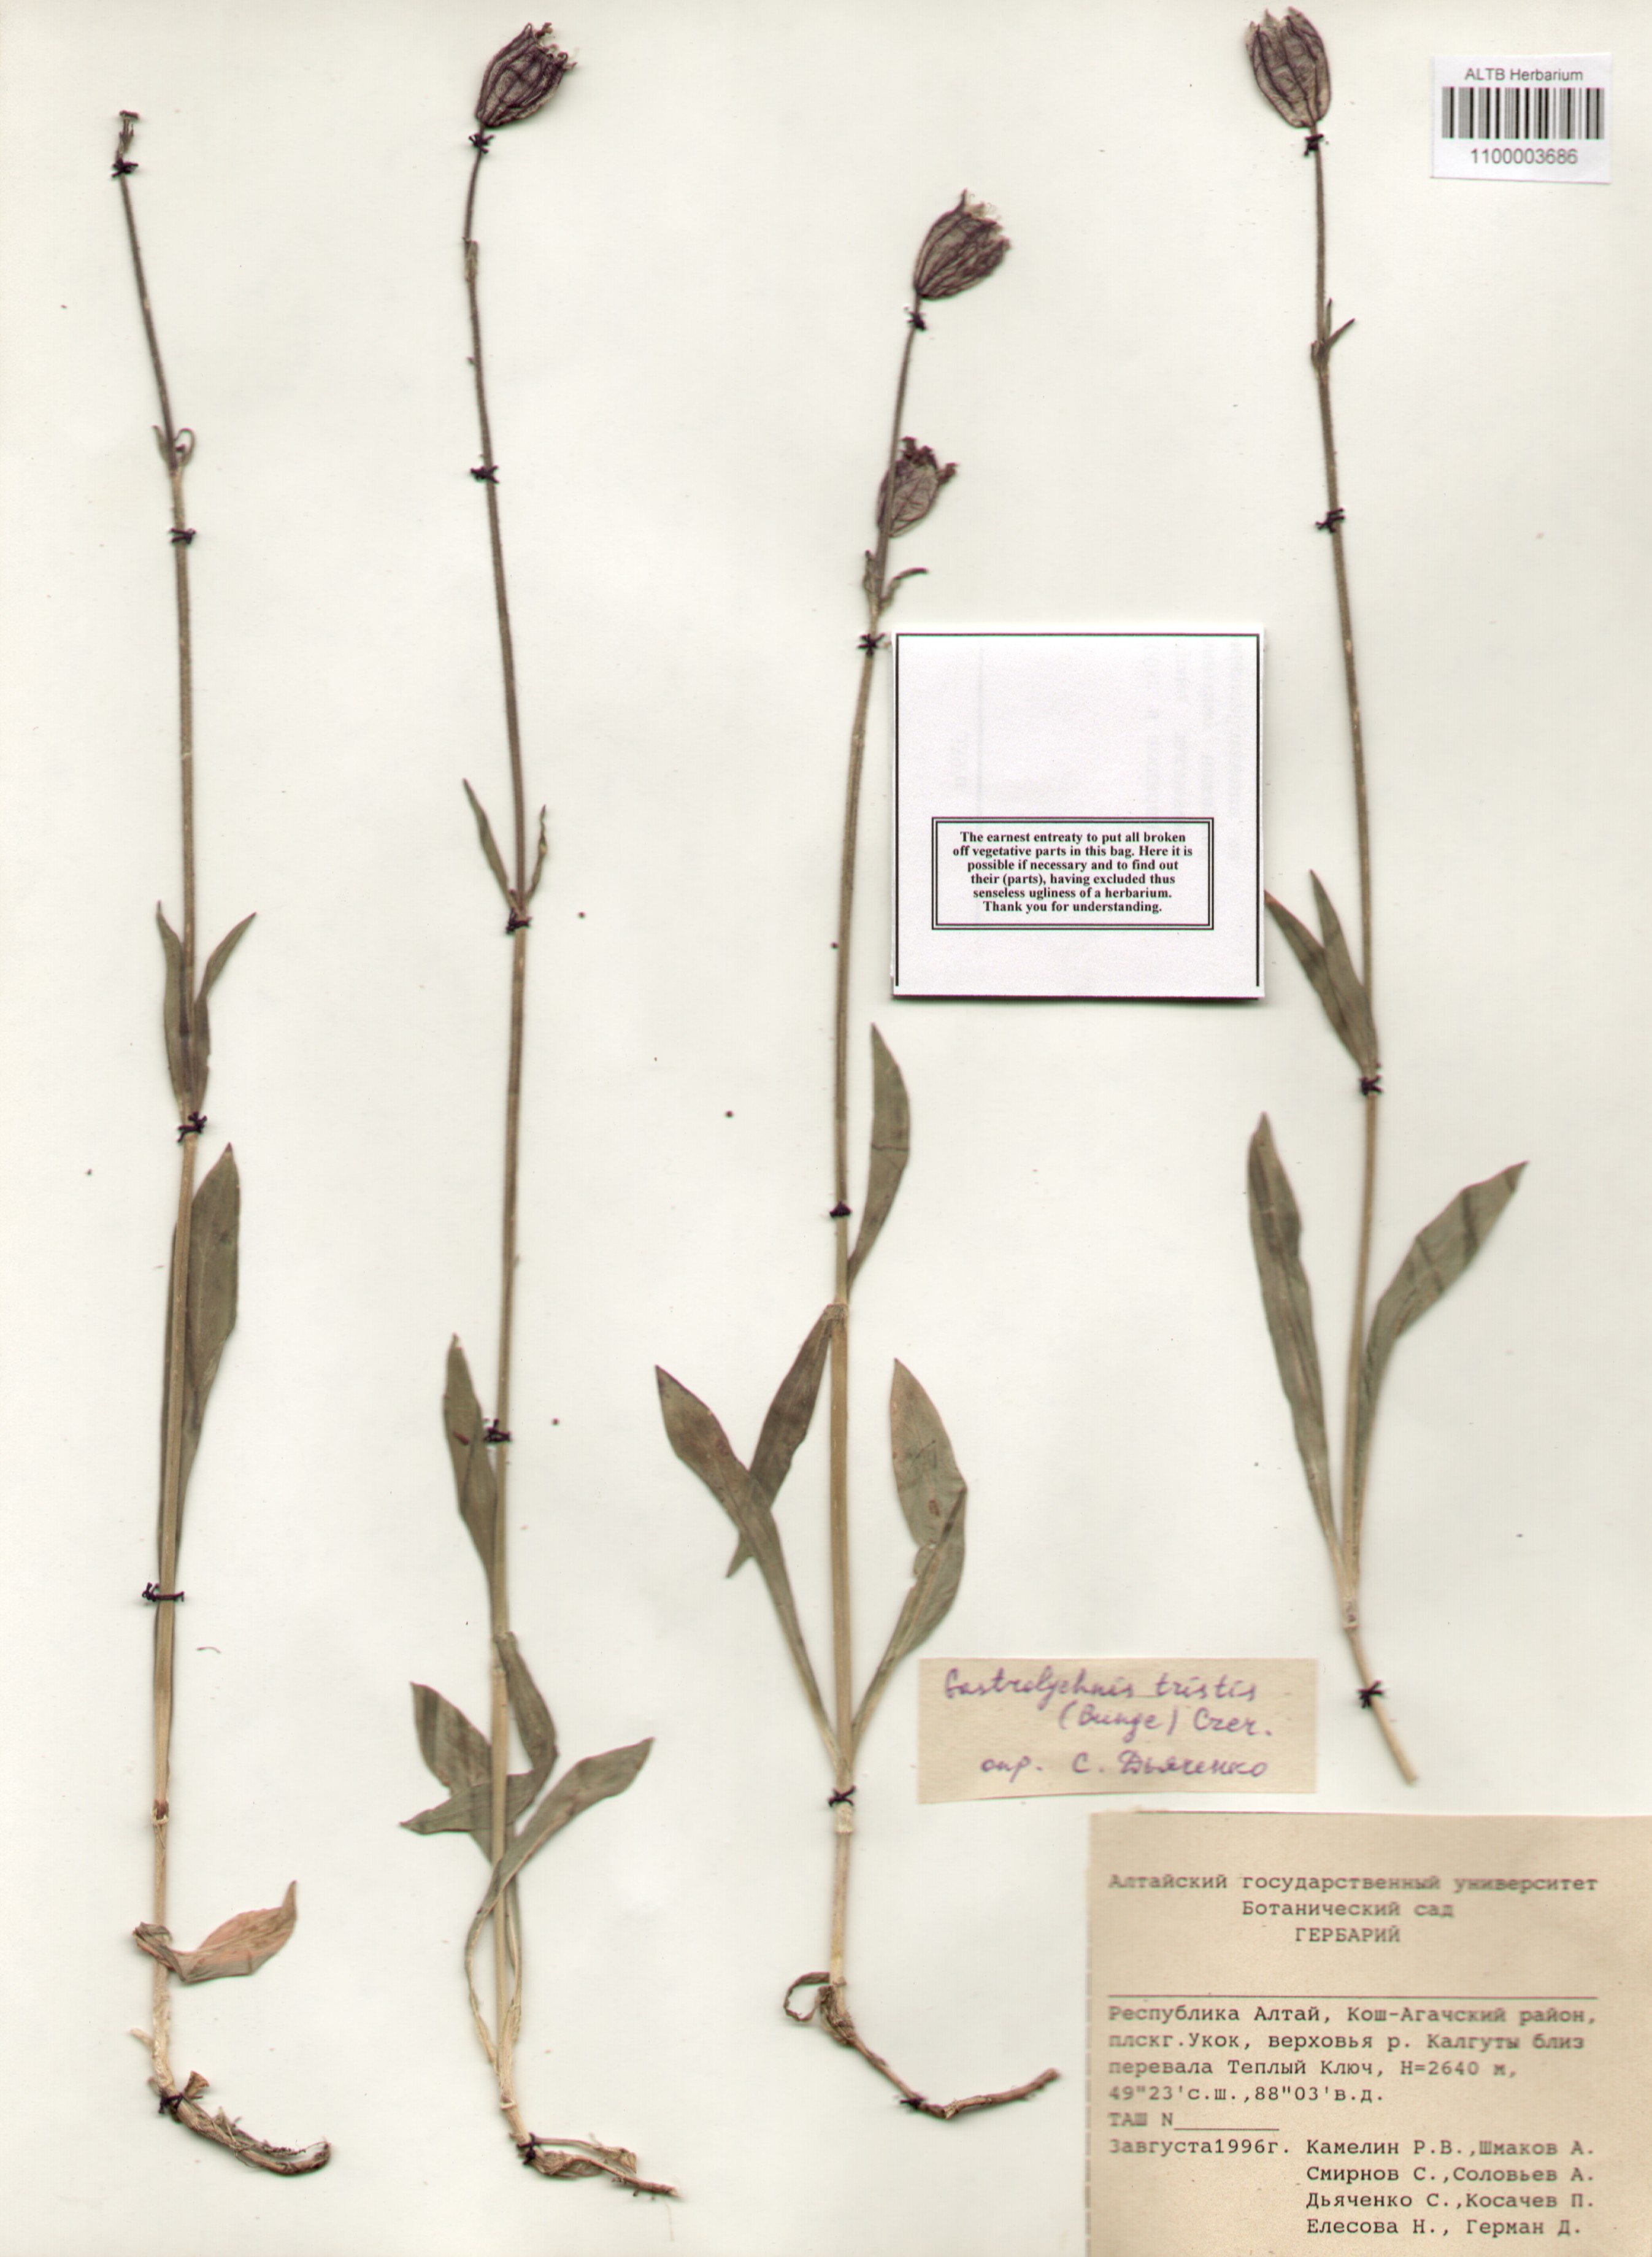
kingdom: Plantae
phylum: Tracheophyta
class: Magnoliopsida
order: Caryophyllales
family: Caryophyllaceae
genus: Silene
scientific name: Silene bungei
